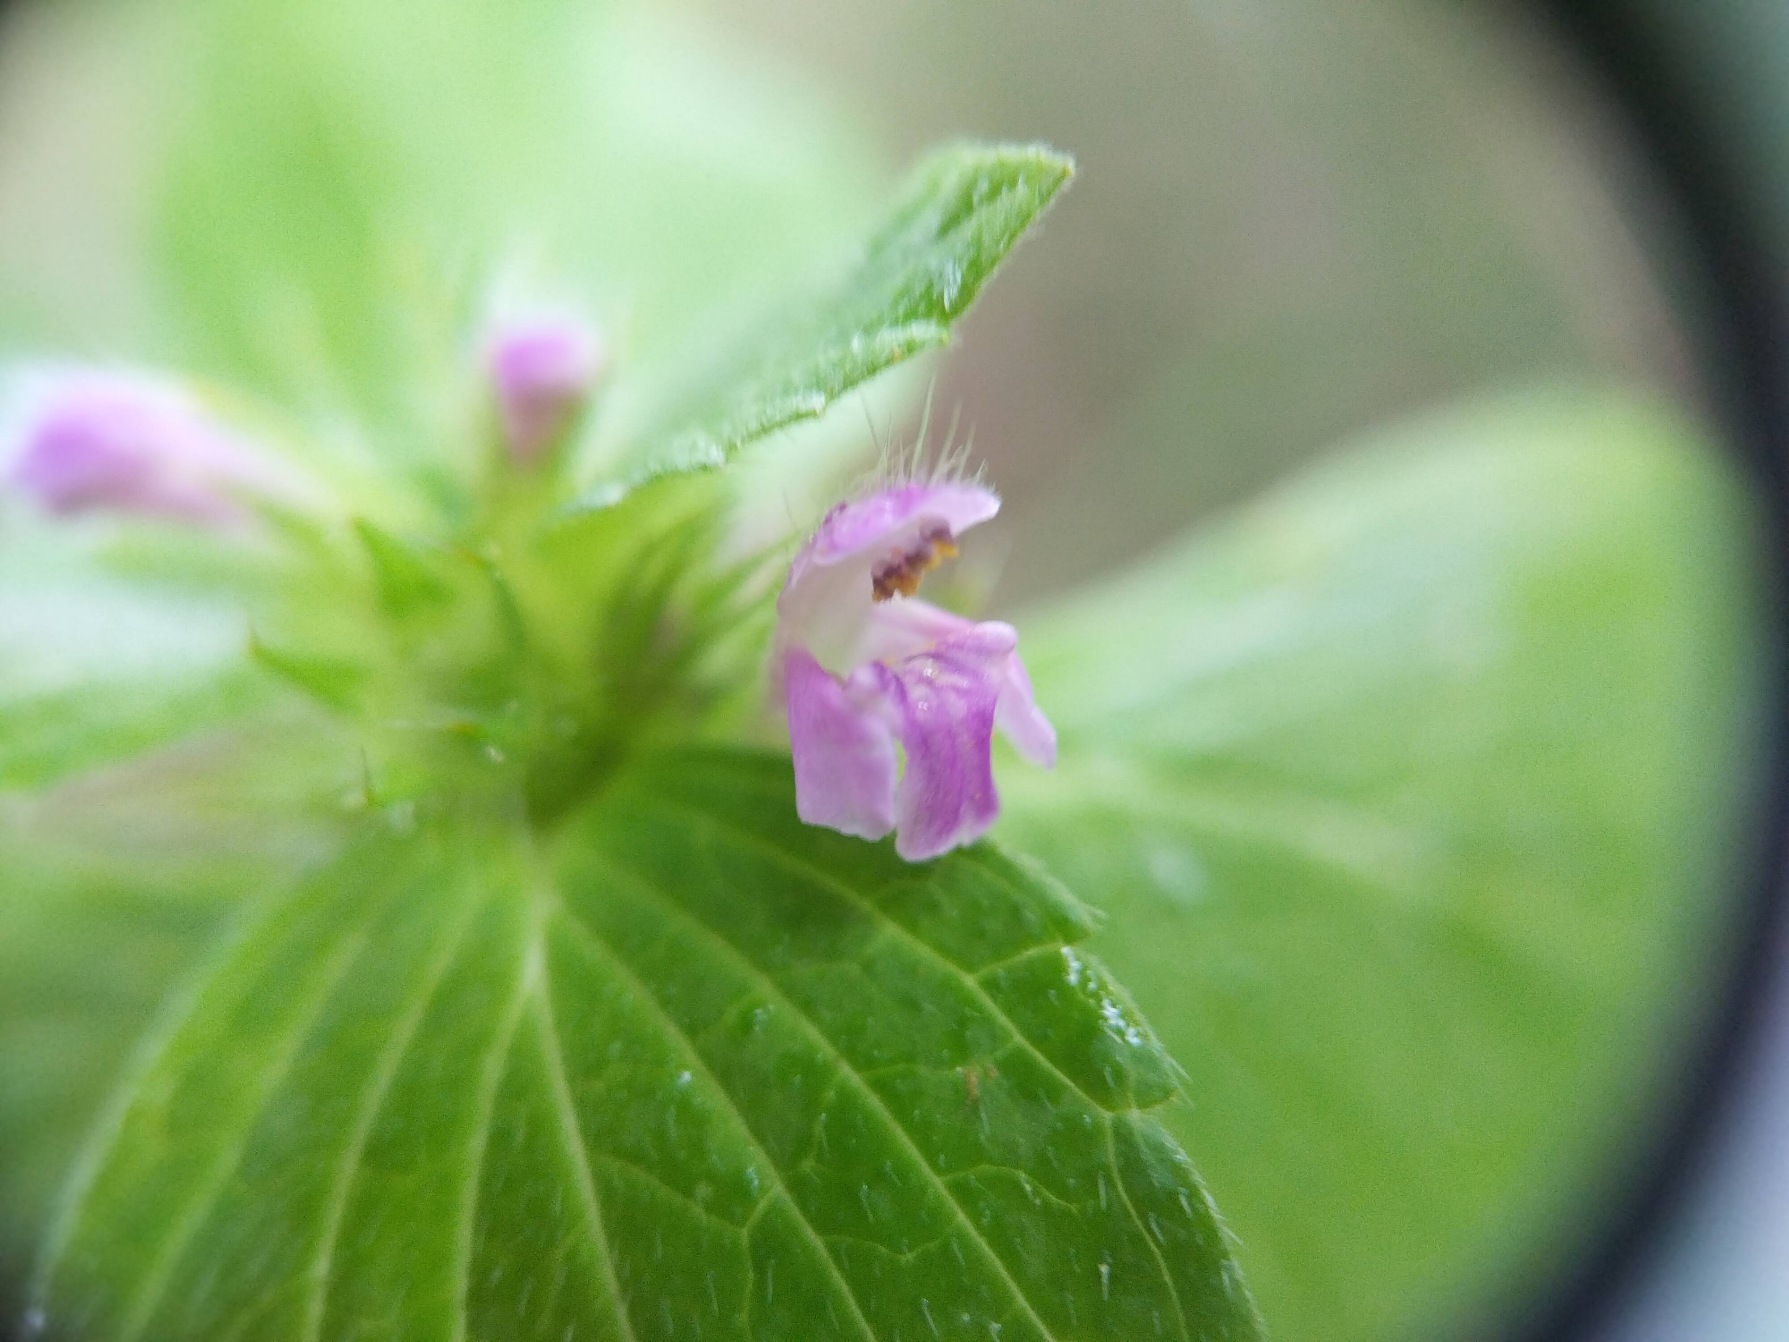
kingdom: Plantae
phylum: Tracheophyta
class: Magnoliopsida
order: Lamiales
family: Lamiaceae
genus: Galeopsis
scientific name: Galeopsis bifida
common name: Skov-hanekro
